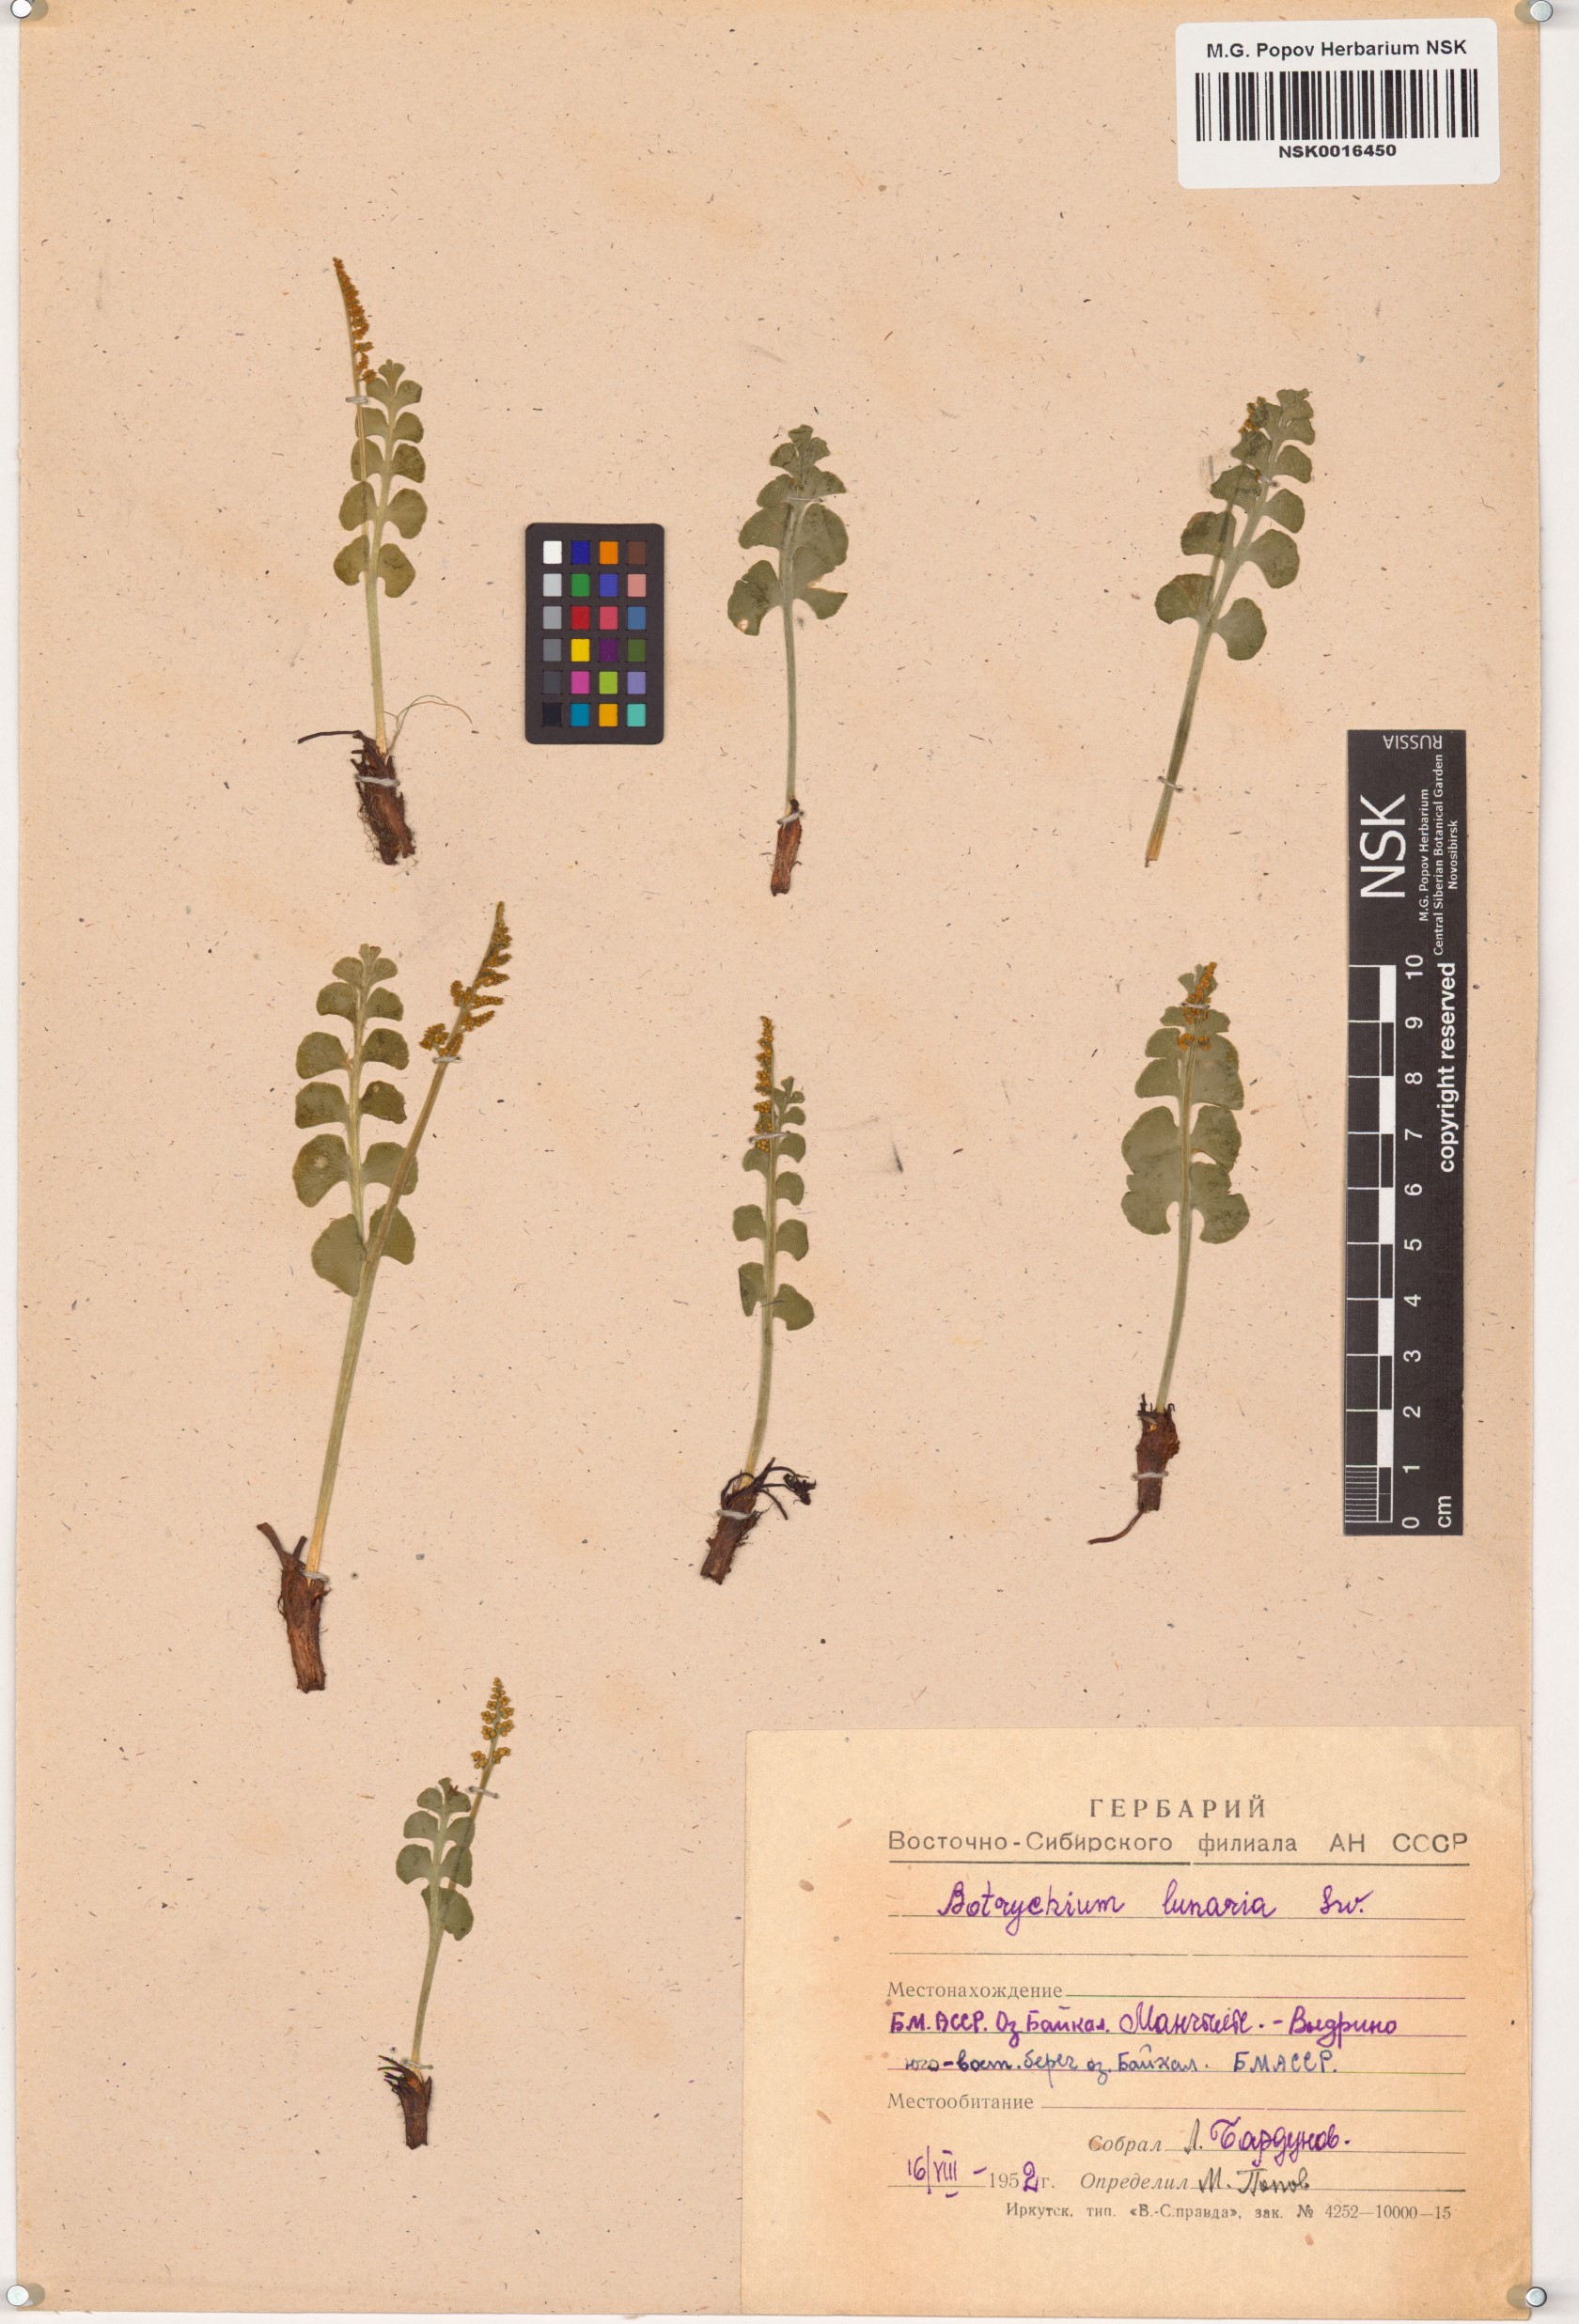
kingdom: Plantae
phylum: Tracheophyta
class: Polypodiopsida
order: Ophioglossales
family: Ophioglossaceae
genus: Botrychium
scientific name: Botrychium lunaria
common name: Moonwort
